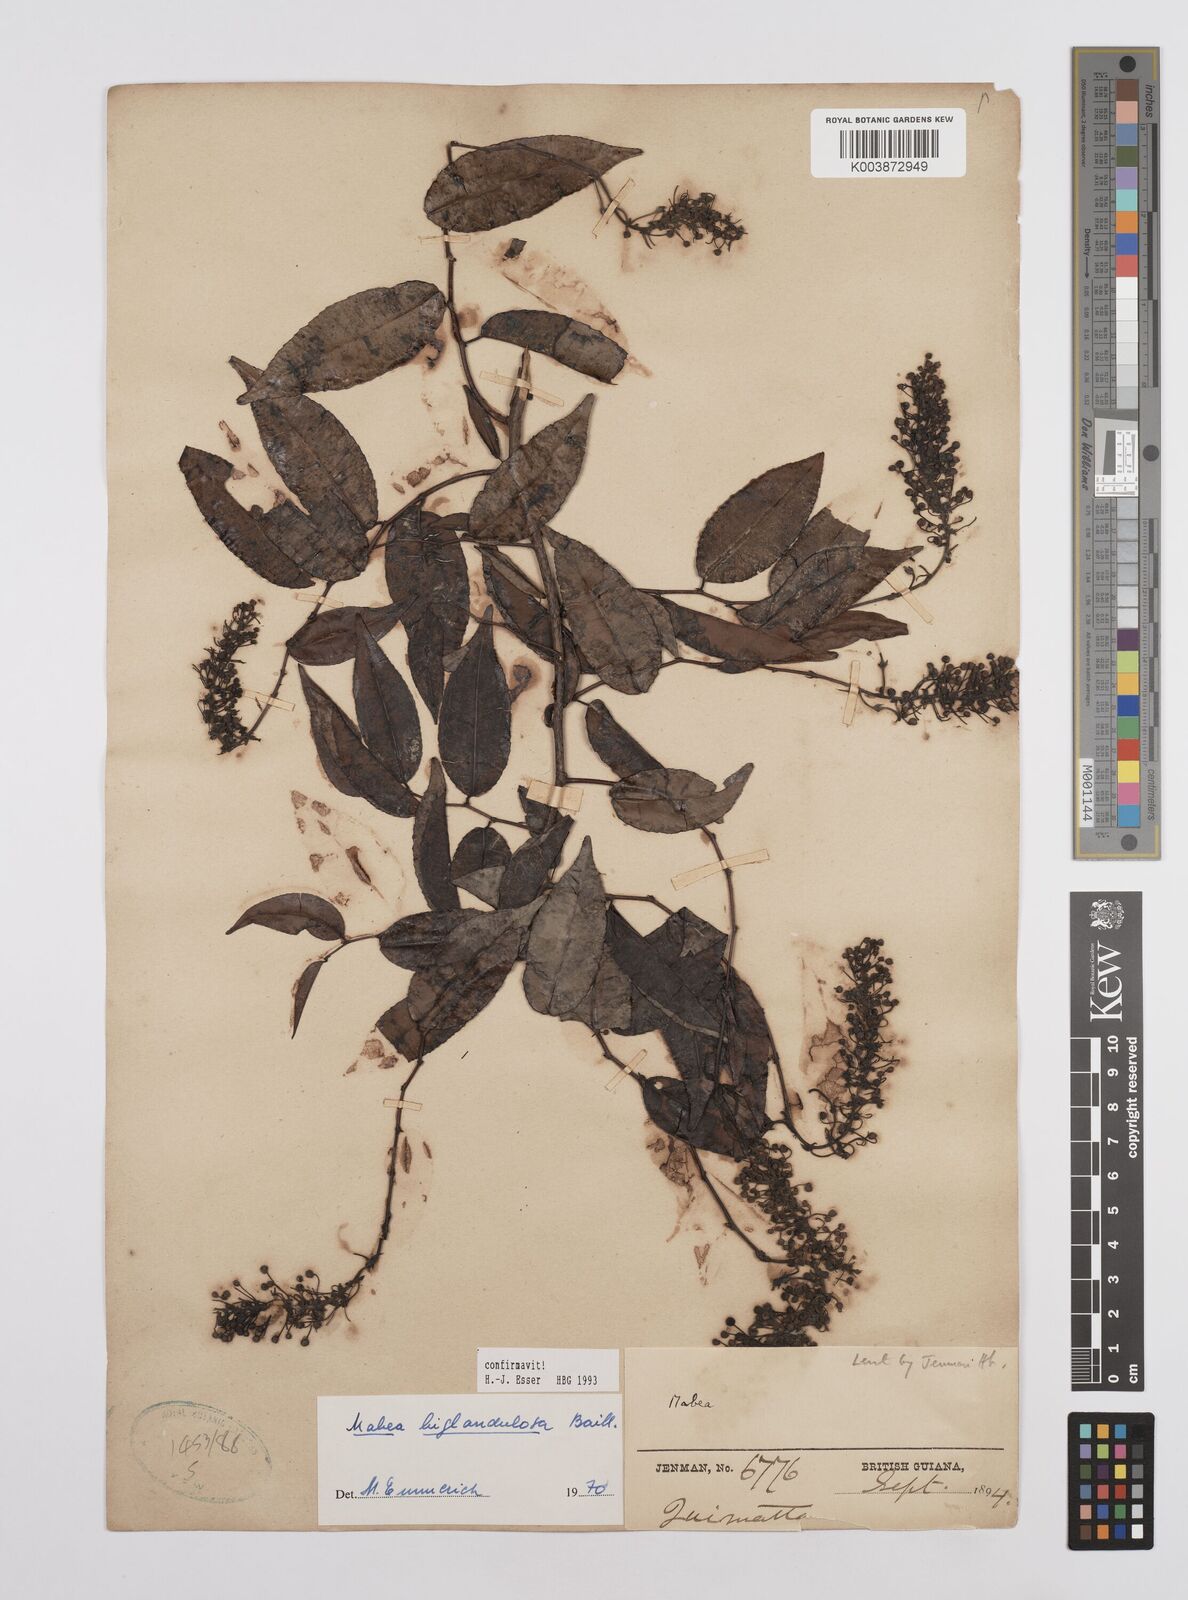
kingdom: Plantae
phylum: Tracheophyta
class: Magnoliopsida
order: Malpighiales
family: Euphorbiaceae
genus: Mabea
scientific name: Mabea biglandulosa
